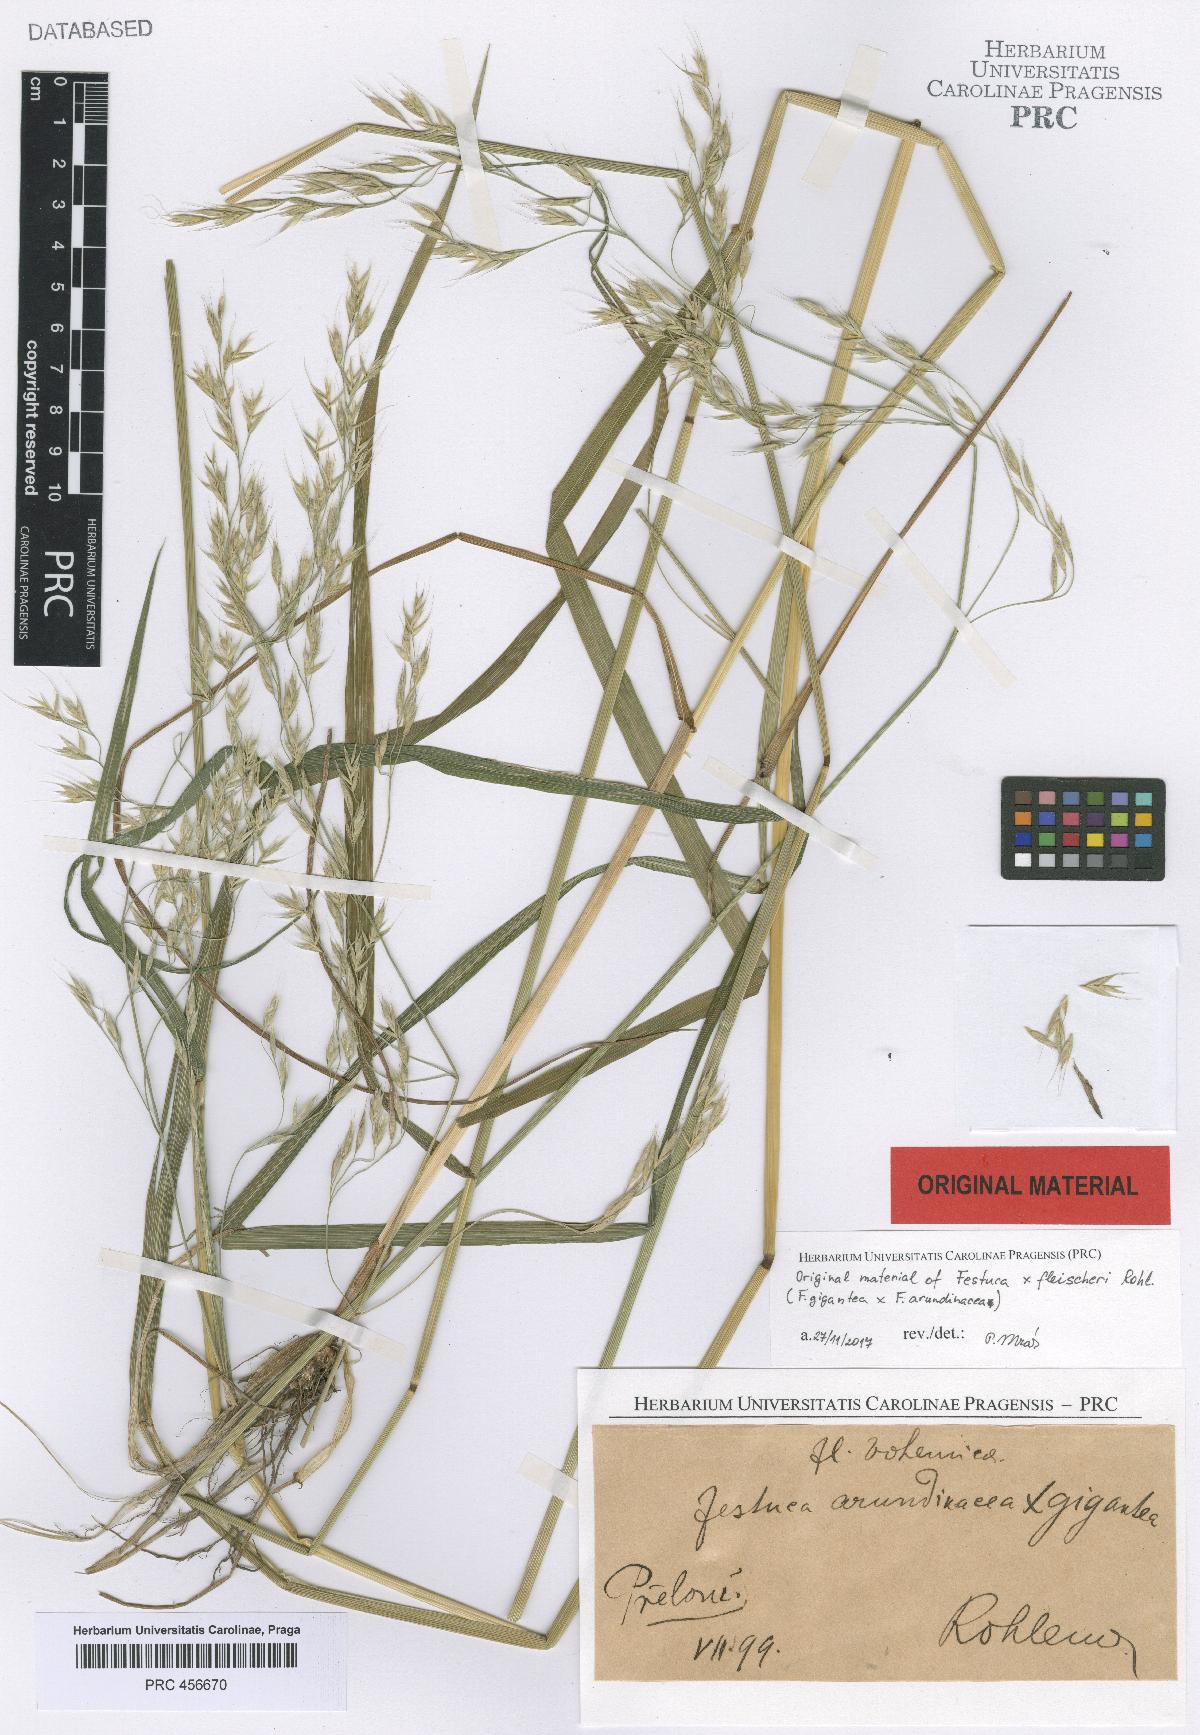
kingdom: Plantae
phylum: Tracheophyta
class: Liliopsida
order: Poales
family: Poaceae
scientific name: Poaceae
